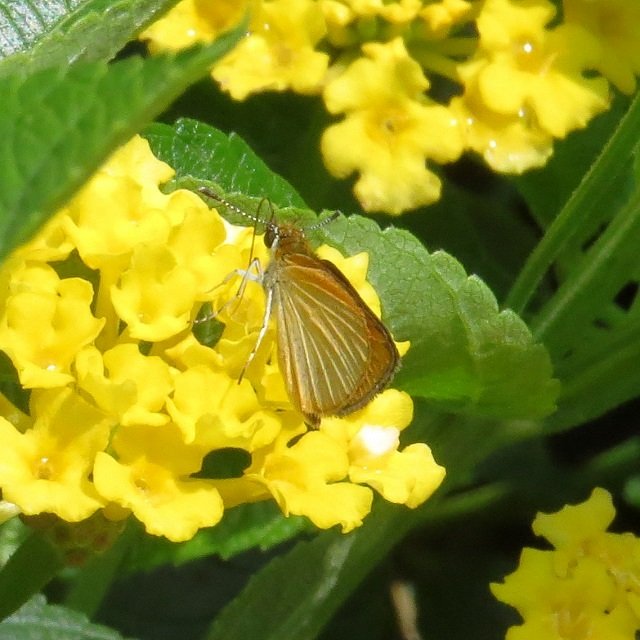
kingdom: Animalia
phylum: Arthropoda
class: Insecta
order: Lepidoptera
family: Hesperiidae
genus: Ancyloxypha
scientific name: Ancyloxypha numitor
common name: Least Skipper
